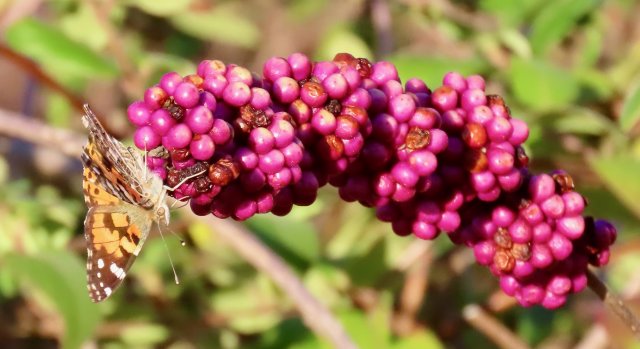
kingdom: Animalia
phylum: Arthropoda
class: Insecta
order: Lepidoptera
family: Nymphalidae
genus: Vanessa
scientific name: Vanessa cardui
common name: Painted Lady
